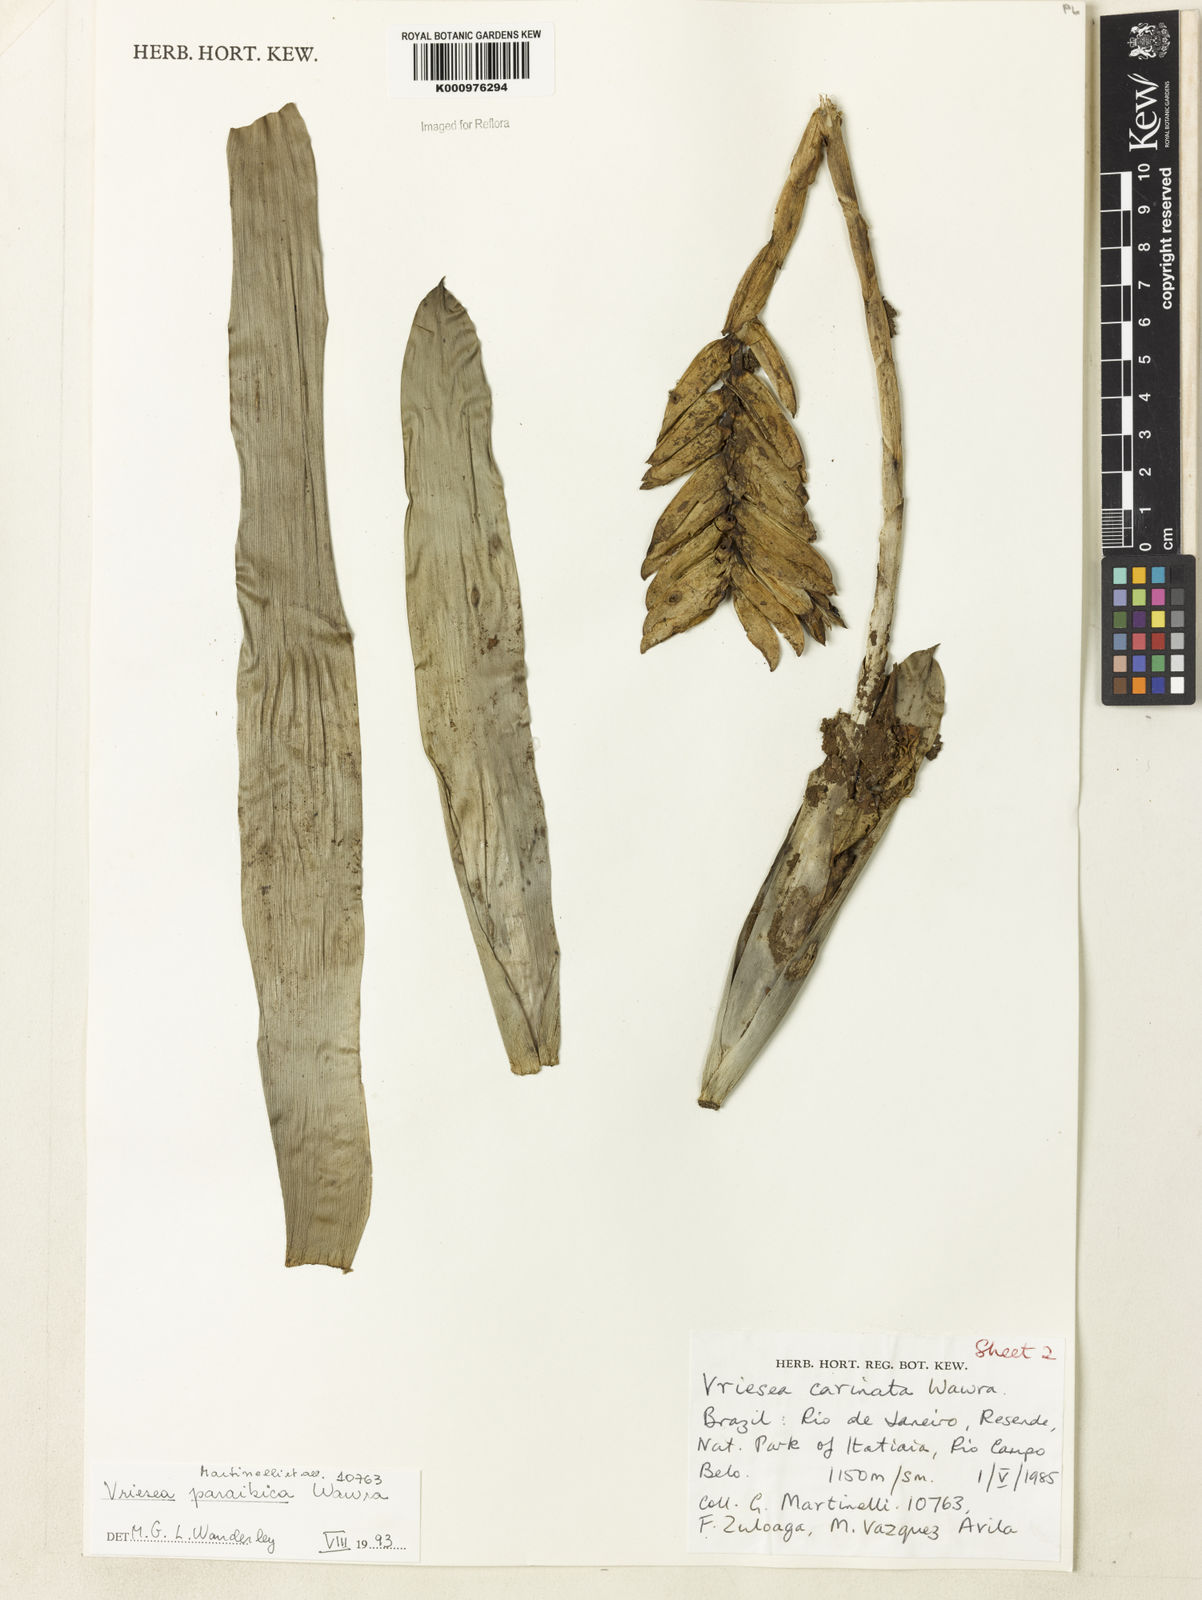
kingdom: Plantae
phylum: Tracheophyta
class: Liliopsida
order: Poales
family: Bromeliaceae
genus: Vriesea
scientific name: Vriesea paraibica
